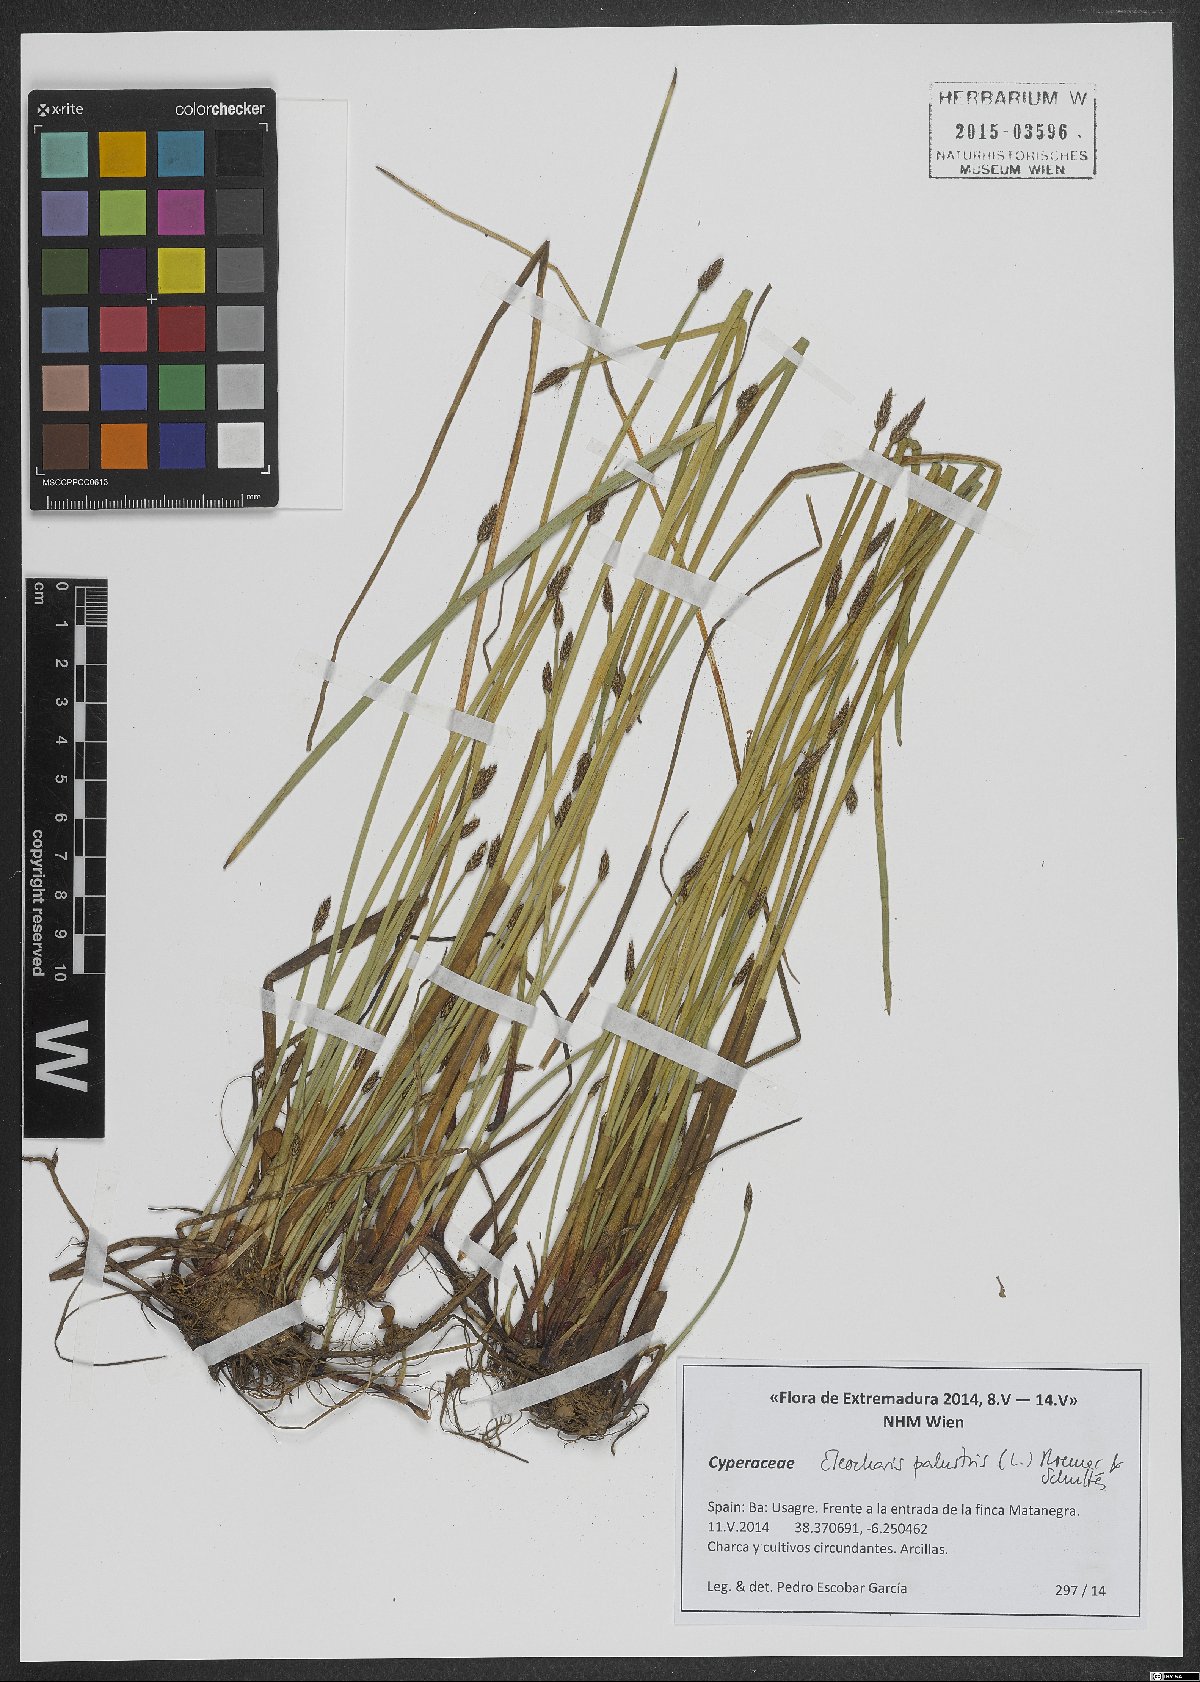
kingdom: Plantae
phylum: Tracheophyta
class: Liliopsida
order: Poales
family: Cyperaceae
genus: Eleocharis
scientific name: Eleocharis palustris
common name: Common spike-rush
